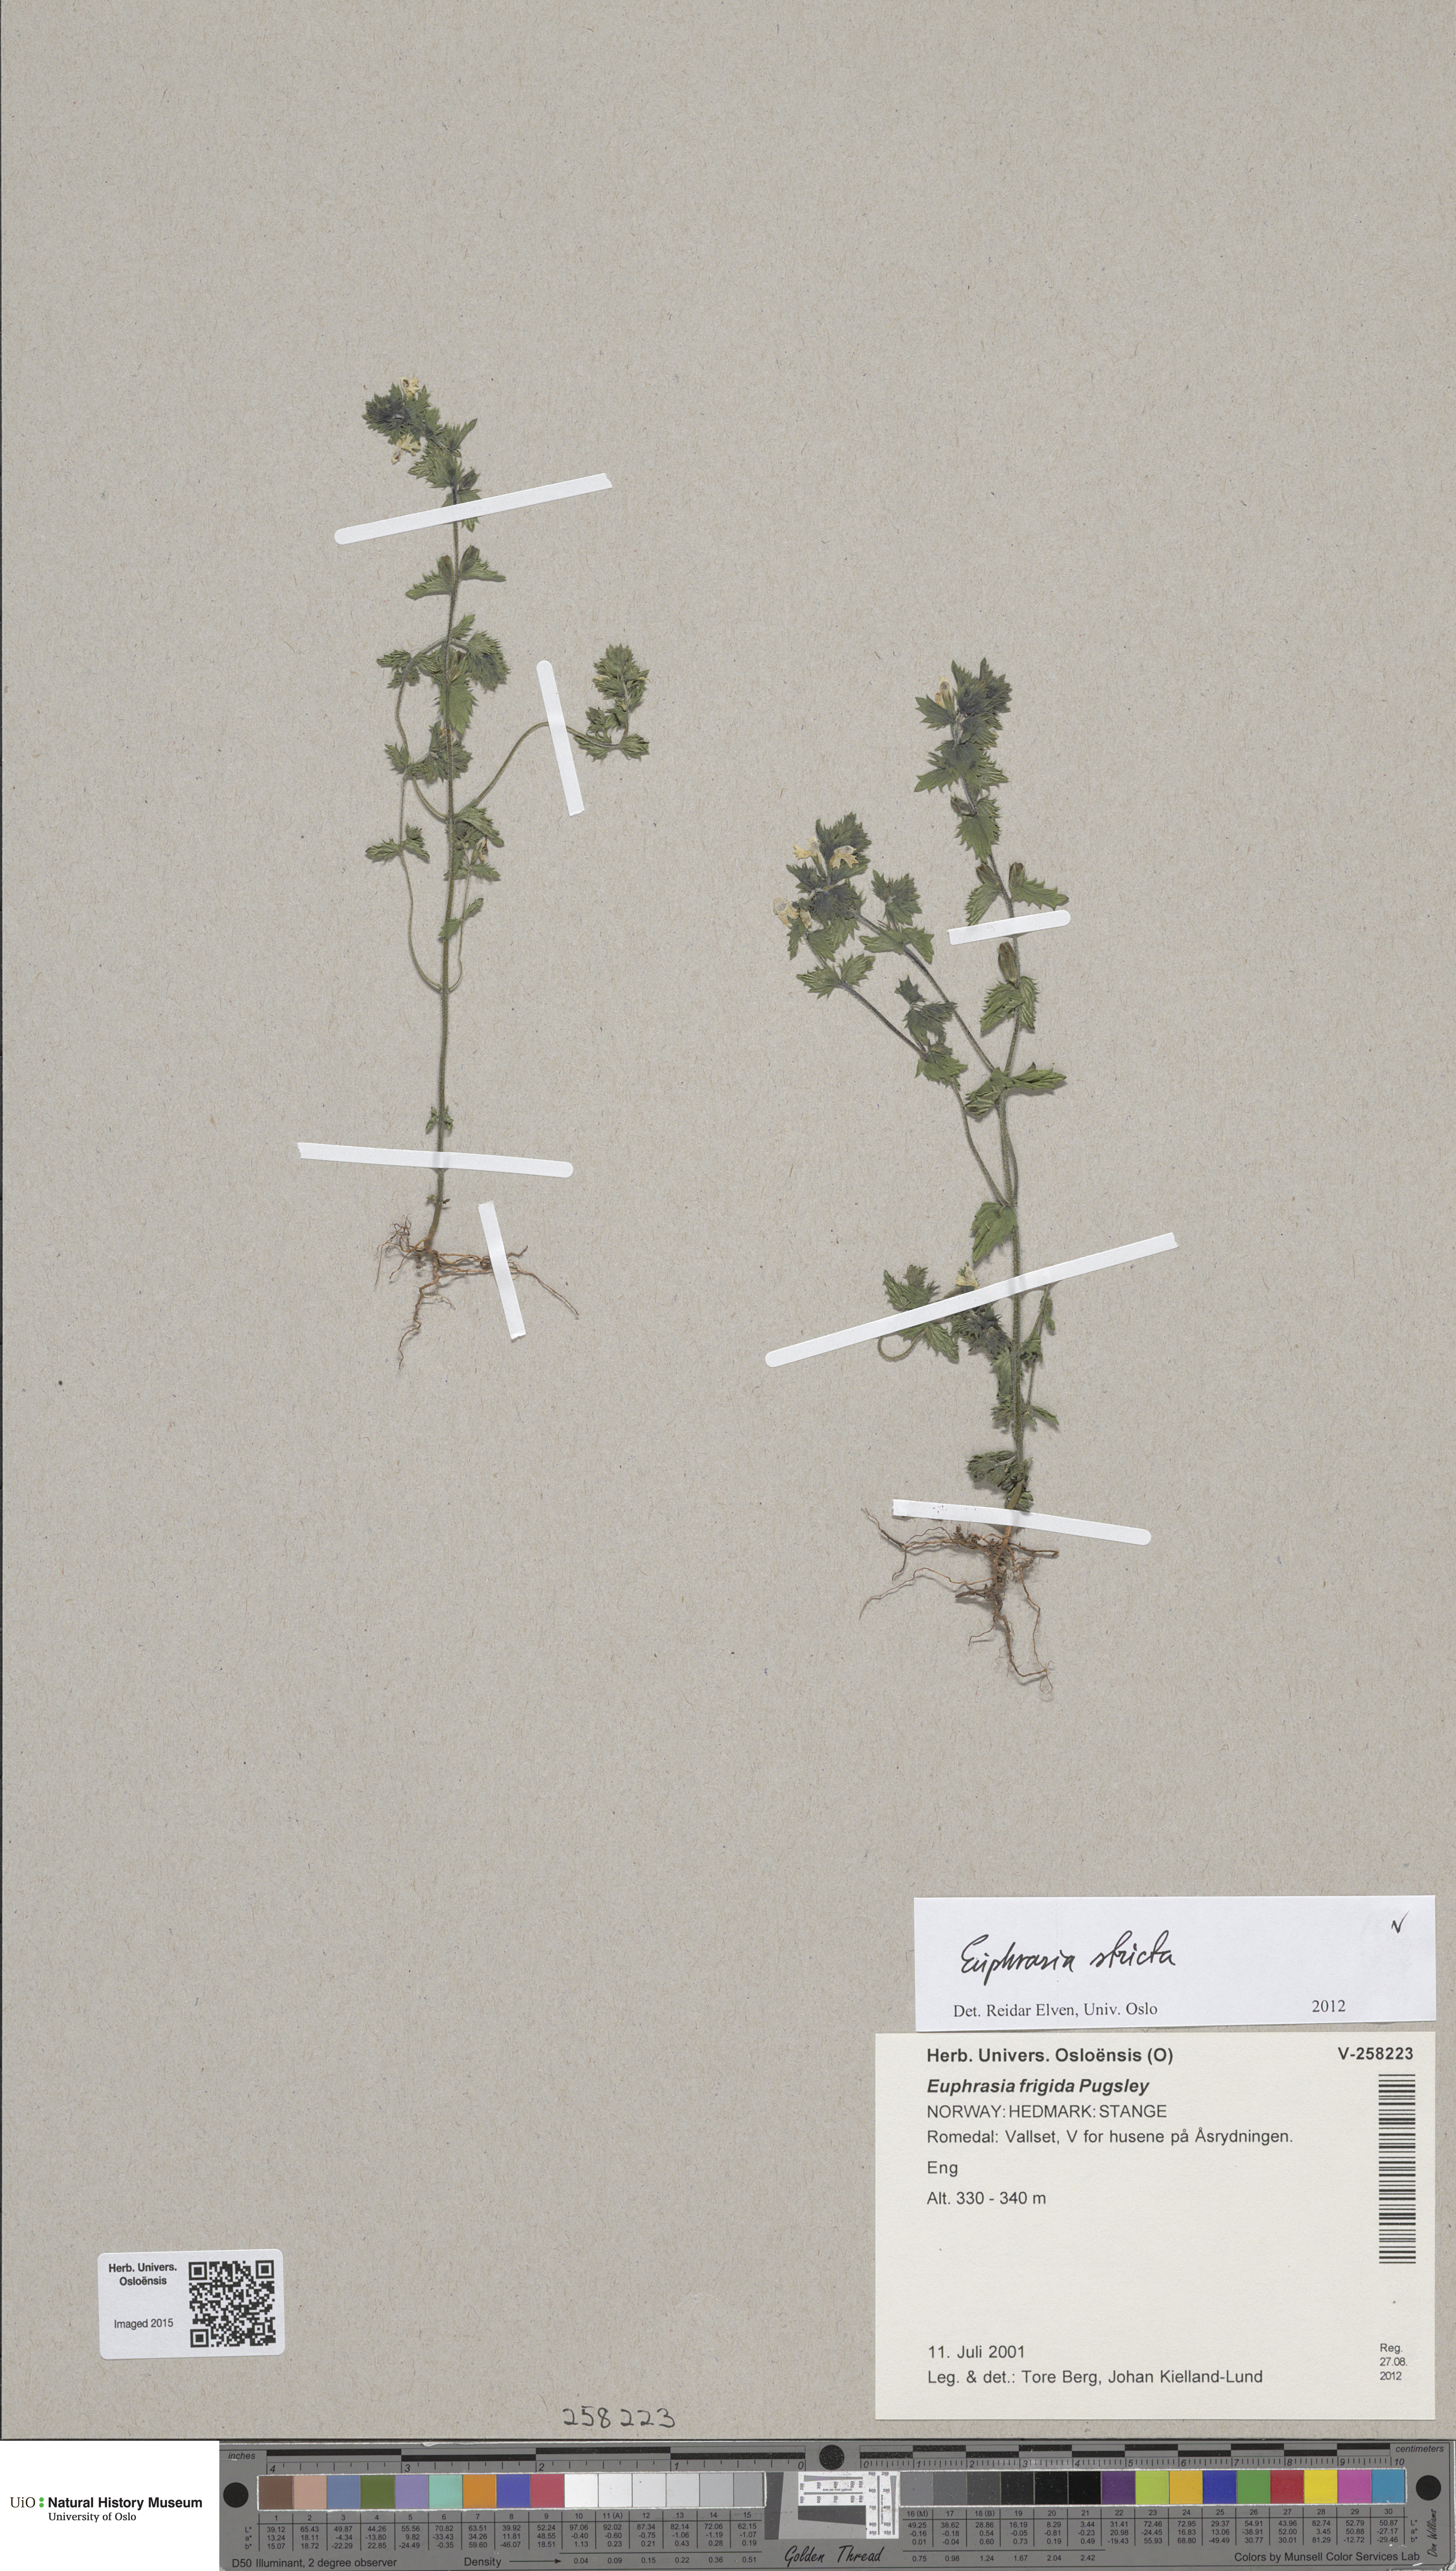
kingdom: Plantae
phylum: Tracheophyta
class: Magnoliopsida
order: Lamiales
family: Orobanchaceae
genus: Euphrasia
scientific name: Euphrasia stricta
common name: Drug eyebright
